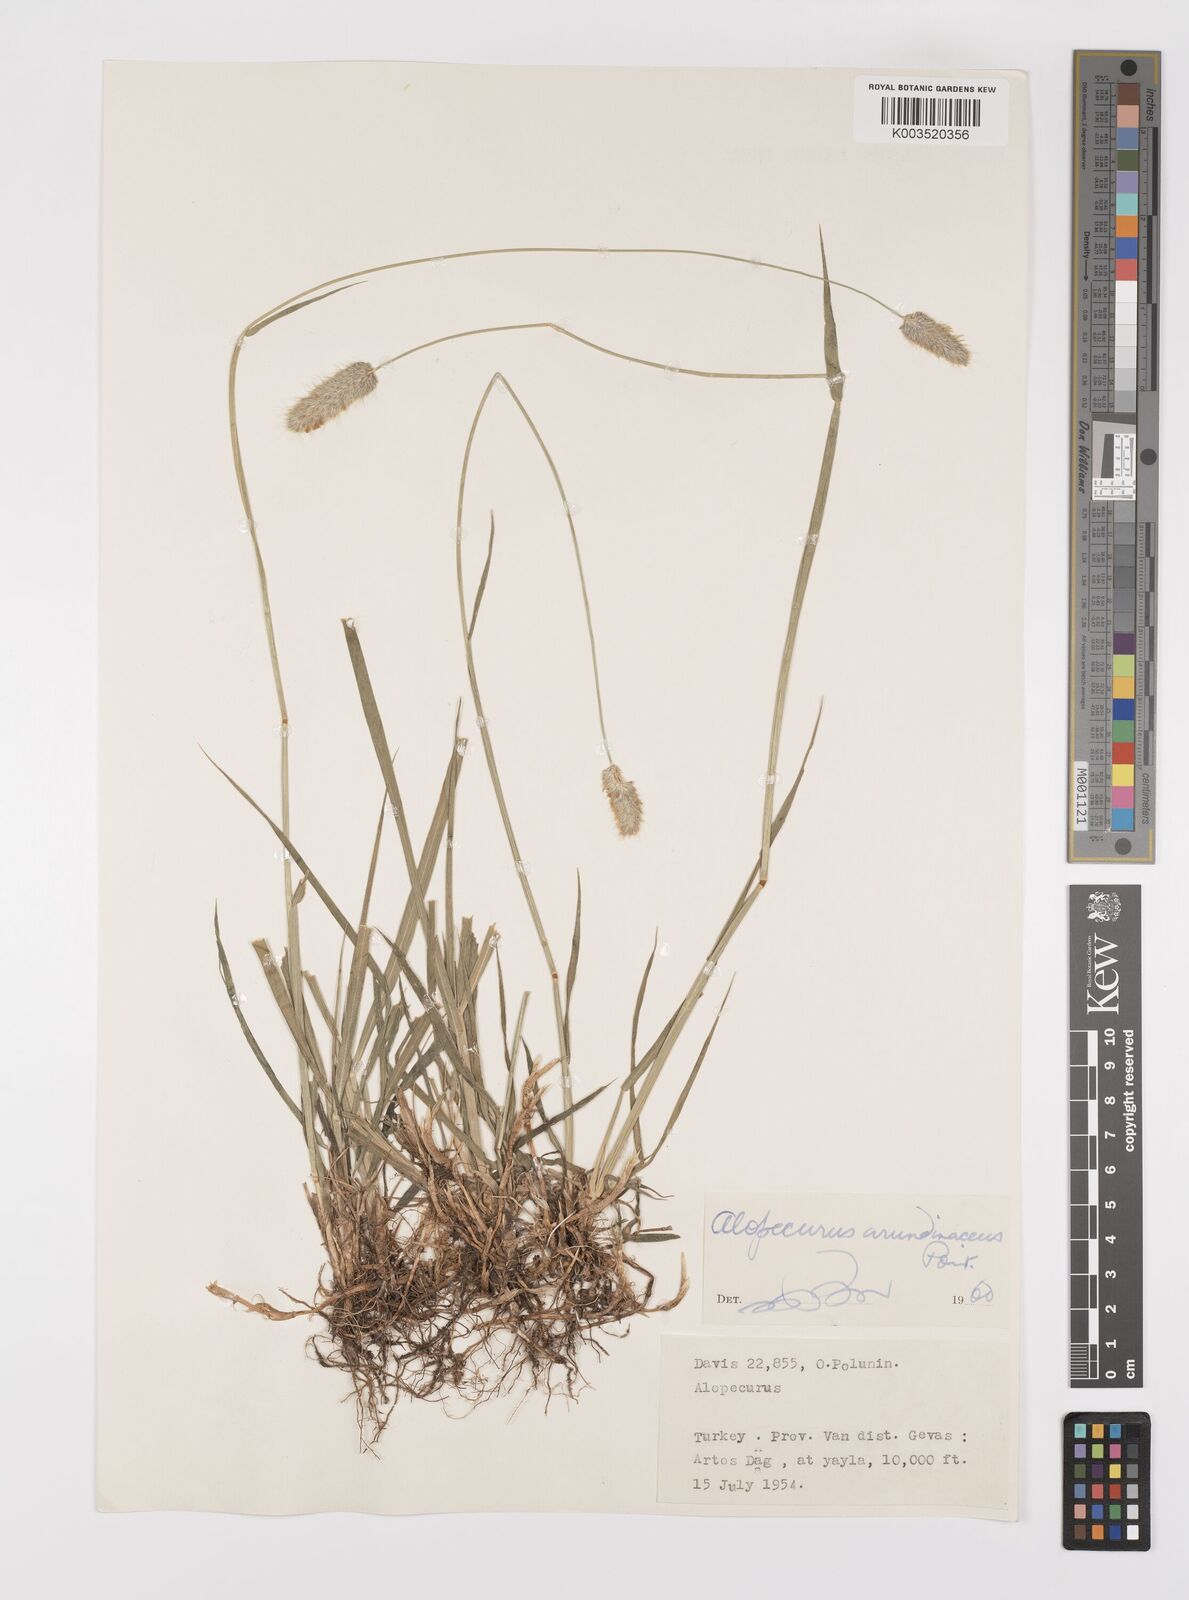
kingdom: Plantae
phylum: Tracheophyta
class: Liliopsida
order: Poales
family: Poaceae
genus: Alopecurus
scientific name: Alopecurus arundinaceus
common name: Creeping meadow foxtail
